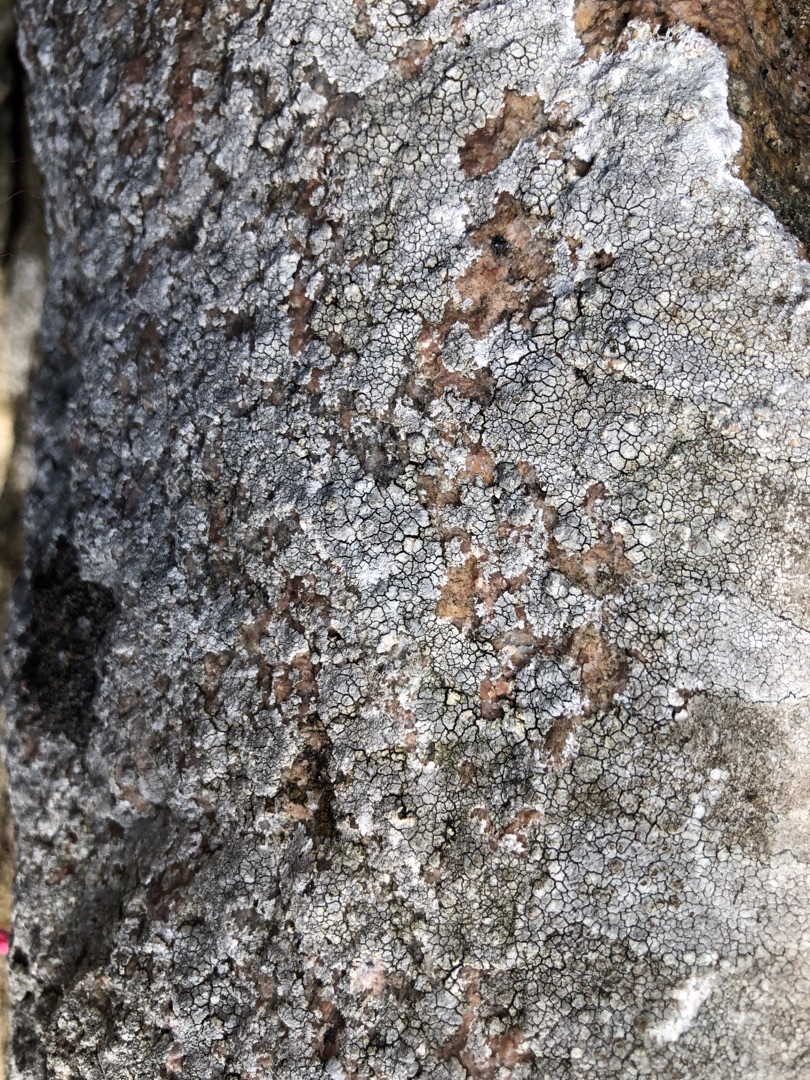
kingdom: Fungi
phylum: Ascomycota
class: Lecanoromycetes
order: Lecanorales
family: Lecanoraceae
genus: Glaucomaria
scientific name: Glaucomaria rupicola
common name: Stengærde-kantskivelav
